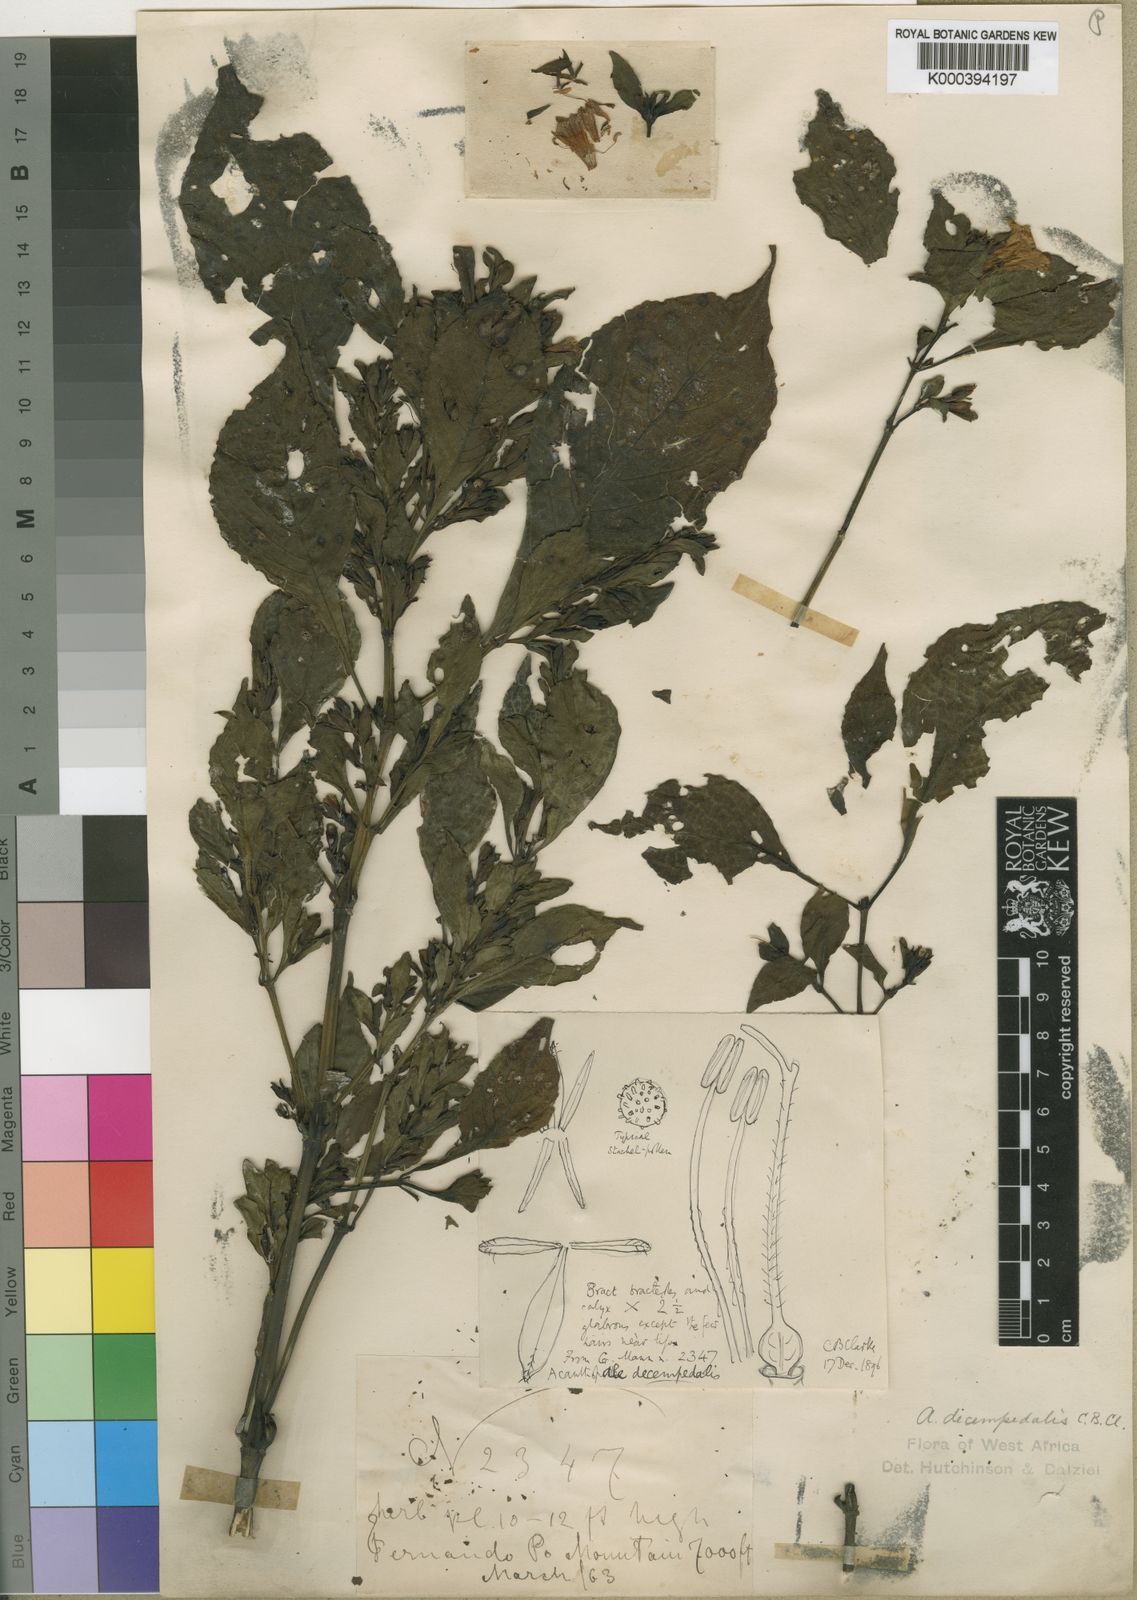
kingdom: Plantae
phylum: Tracheophyta
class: Magnoliopsida
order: Lamiales
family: Acanthaceae
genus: Acanthopale
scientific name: Acanthopale decempedalis
